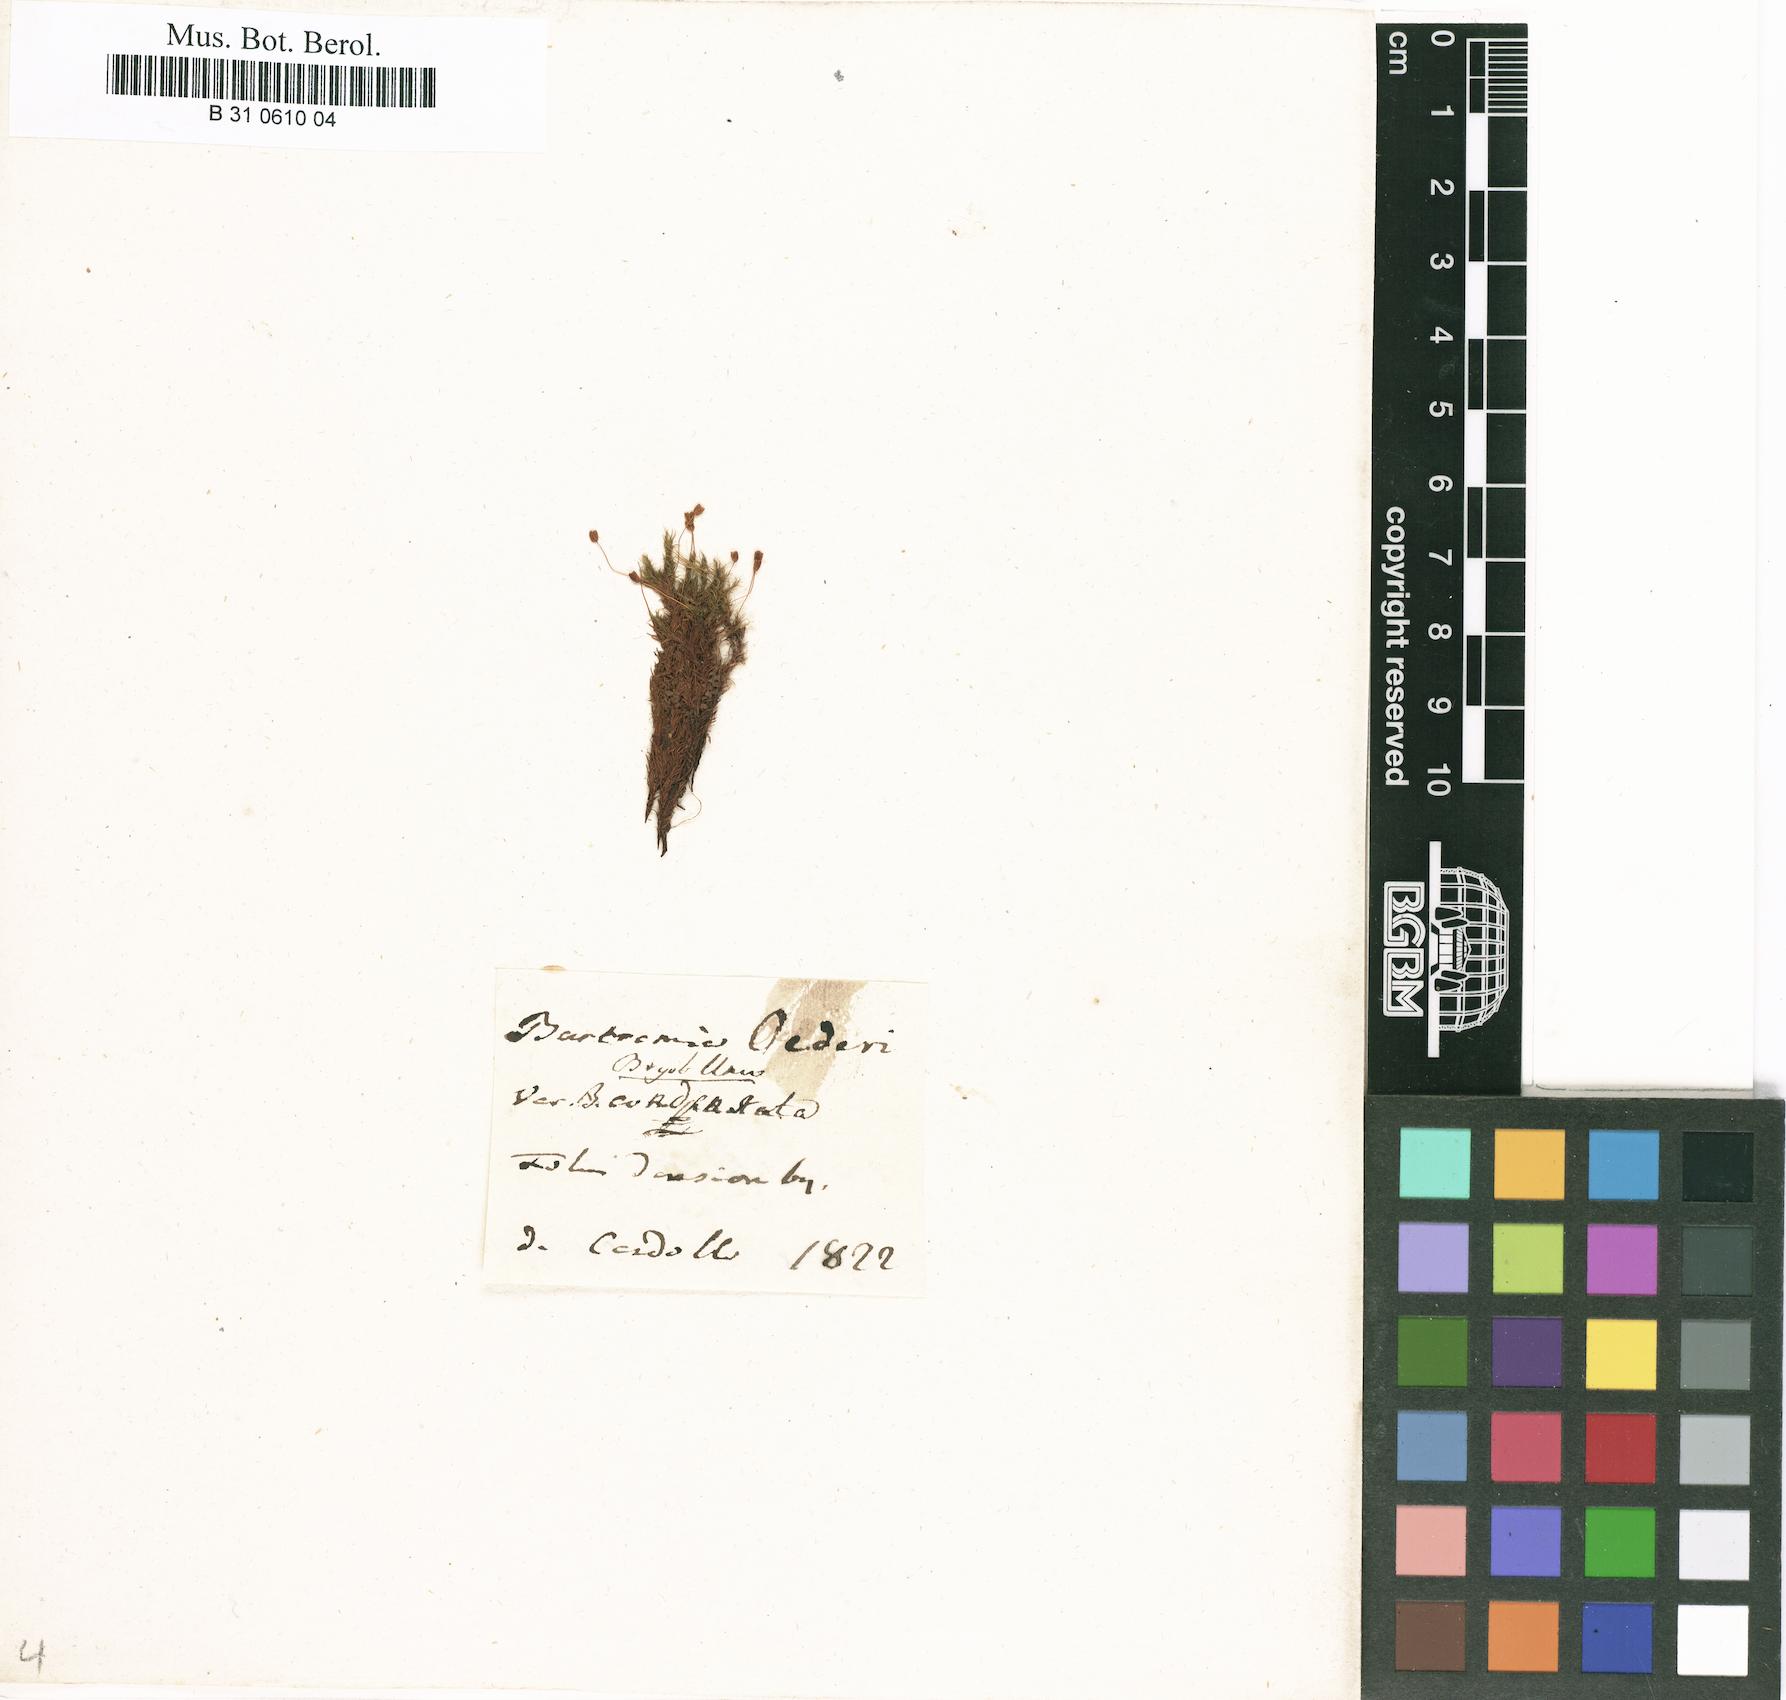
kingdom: Plantae
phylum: Bryophyta
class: Bryopsida
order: Bartramiales
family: Bartramiaceae
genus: Plagiopus
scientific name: Plagiopus oederianus
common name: Oeder's apple moss
